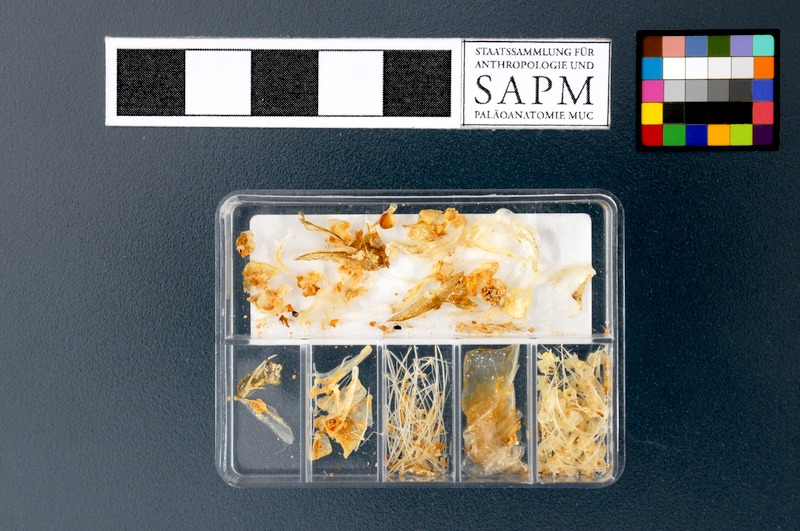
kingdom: Animalia
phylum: Chordata
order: Clupeiformes
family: Clupeidae
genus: Sprattus
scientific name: Sprattus sprattus
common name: Sprat
